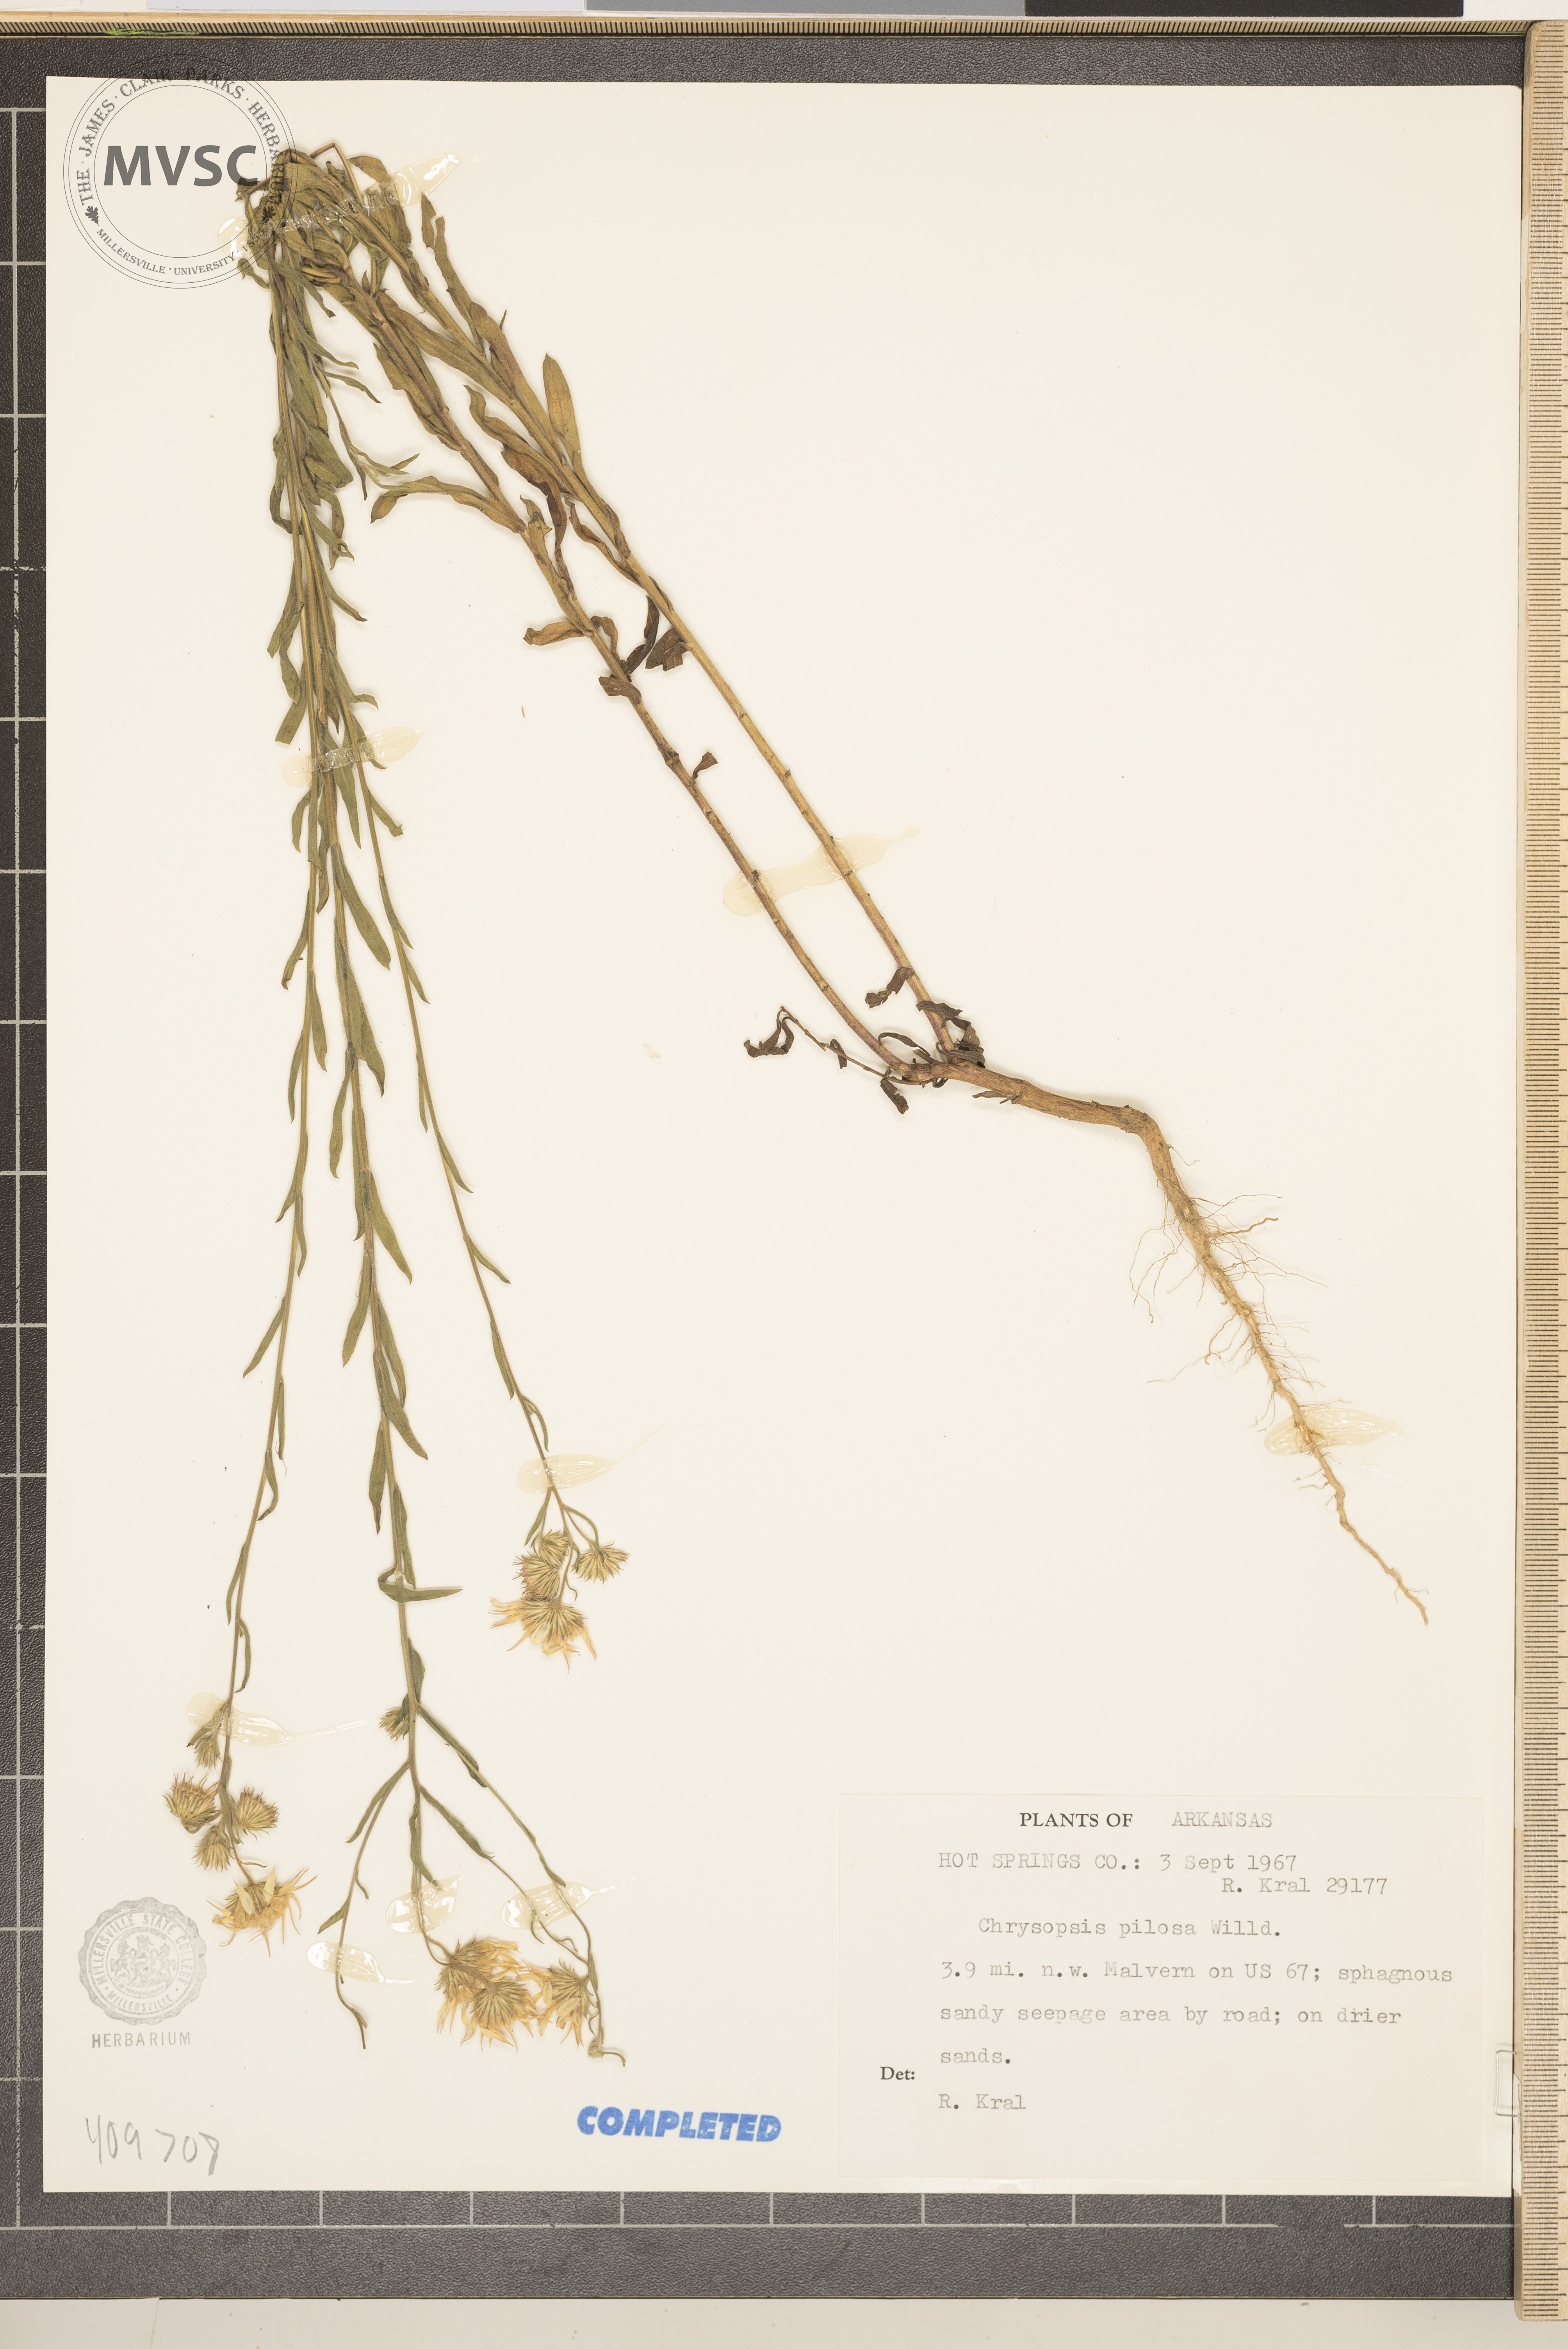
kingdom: Plantae
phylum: Tracheophyta
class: Magnoliopsida
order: Asterales
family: Asteraceae
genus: Chrysopsis
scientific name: Chrysopsis gossypina
